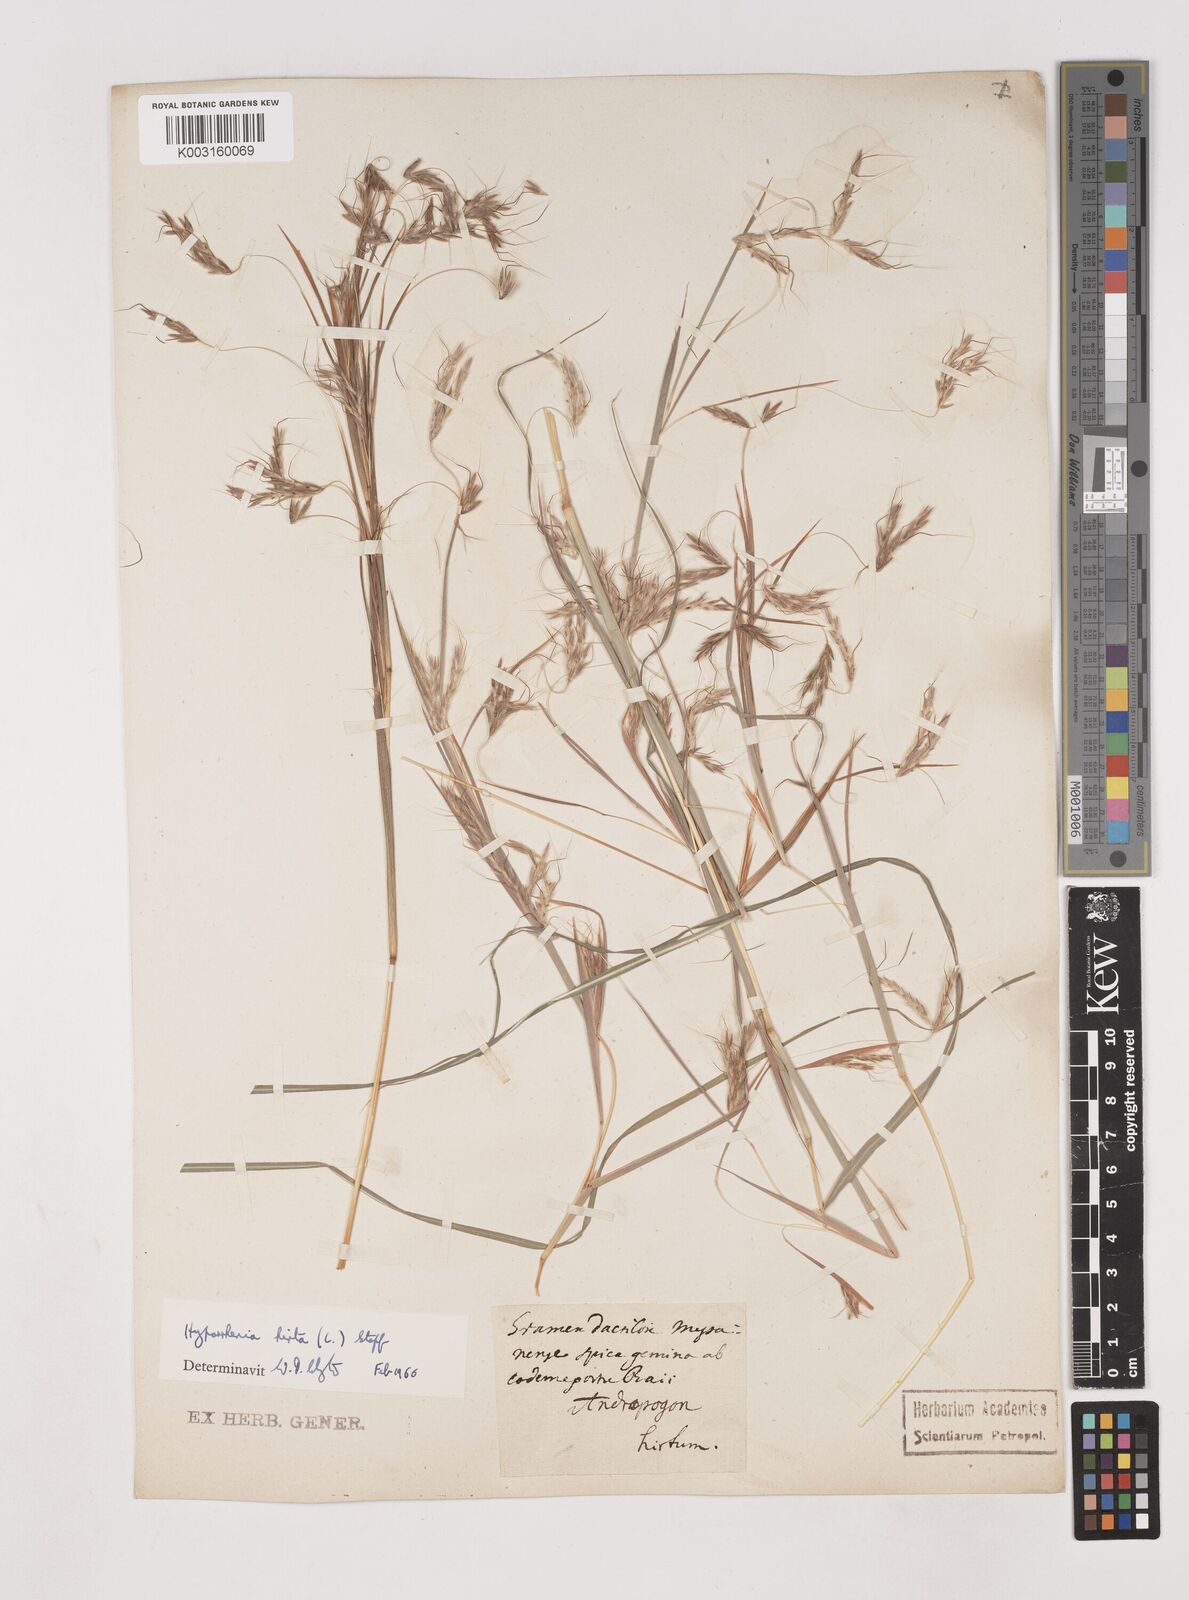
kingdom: Plantae
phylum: Tracheophyta
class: Liliopsida
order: Poales
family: Poaceae
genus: Hyparrhenia
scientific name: Hyparrhenia hirta
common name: Thatching grass
